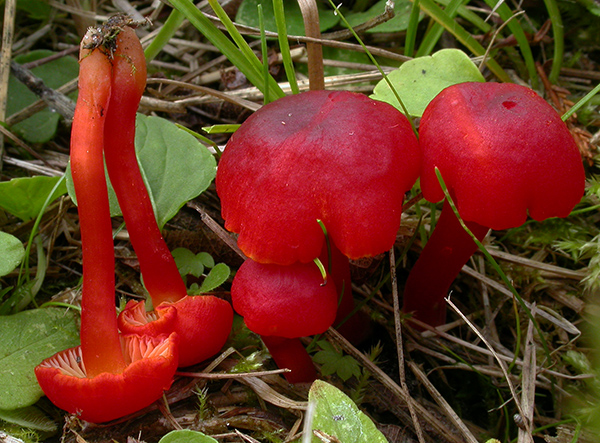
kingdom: Fungi
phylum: Basidiomycota
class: Agaricomycetes
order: Agaricales
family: Hygrophoraceae
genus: Hygrocybe
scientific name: Hygrocybe phaeococcinea
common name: sortdugget vokshat
